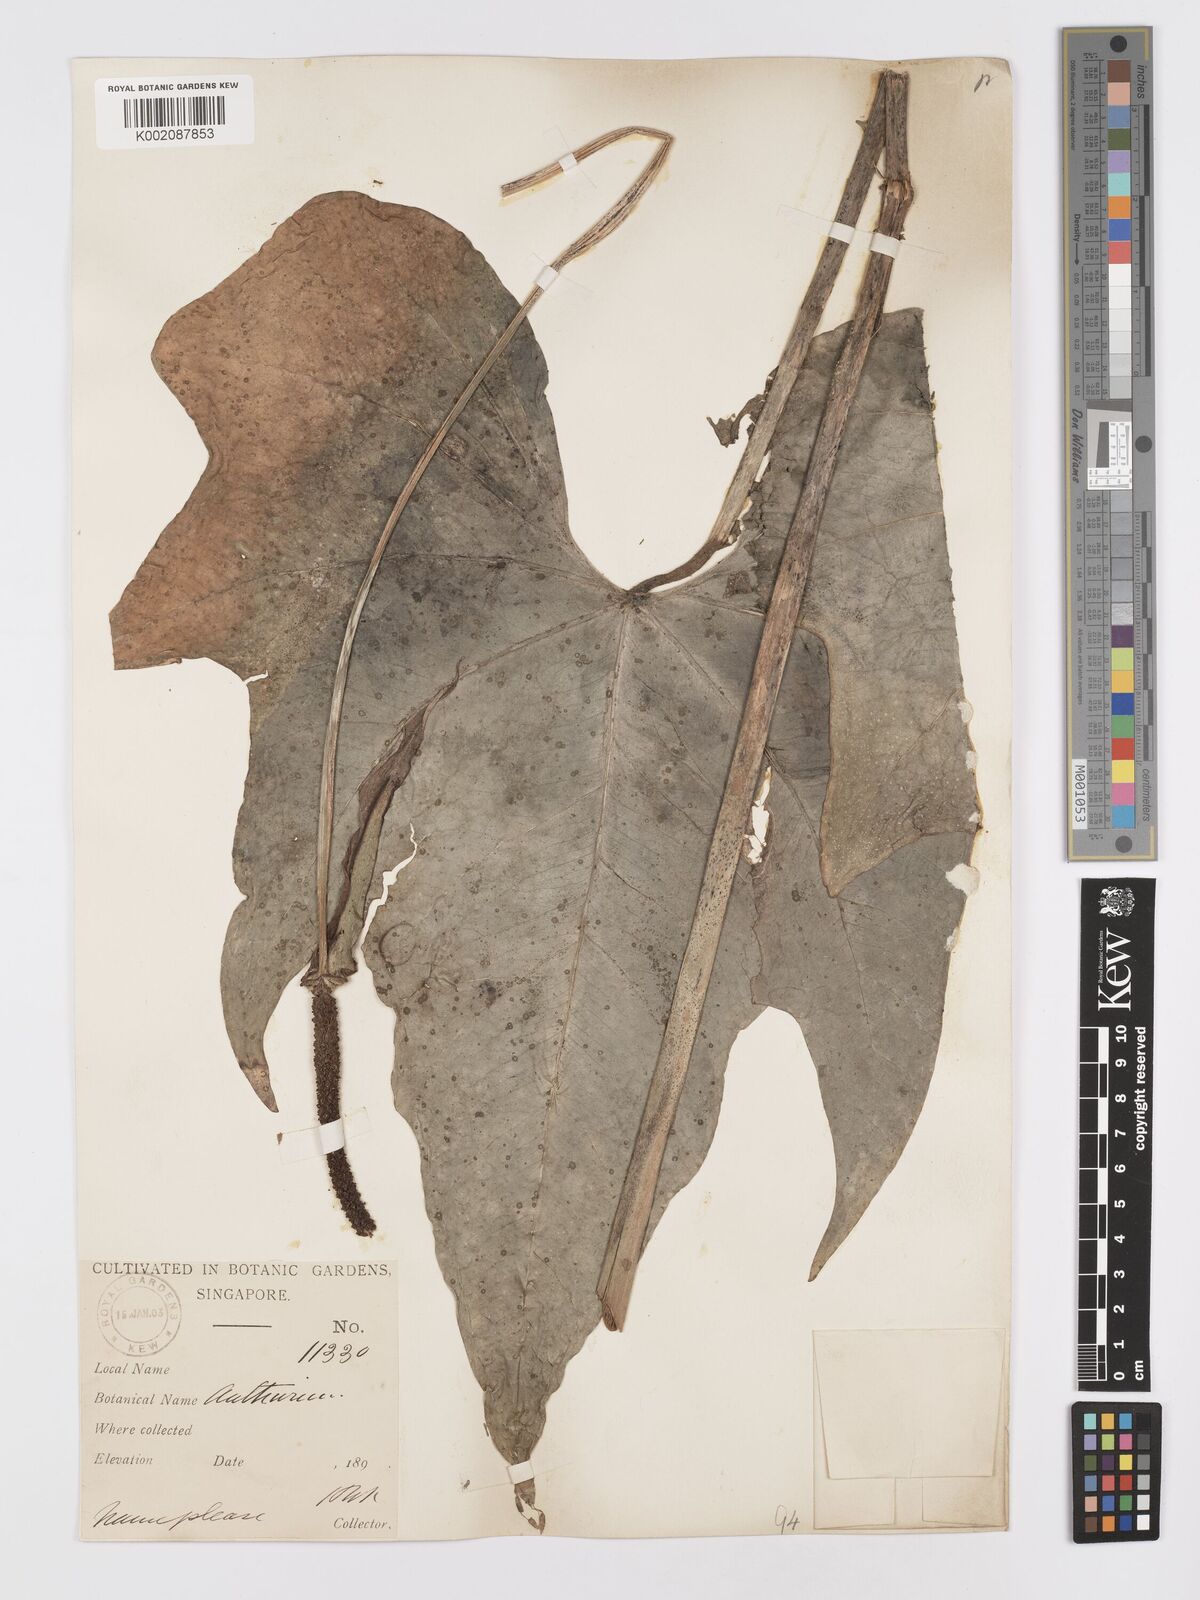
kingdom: Plantae
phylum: Tracheophyta
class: Liliopsida
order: Alismatales
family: Araceae
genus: Anthurium
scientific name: Anthurium pedatoradiatum
